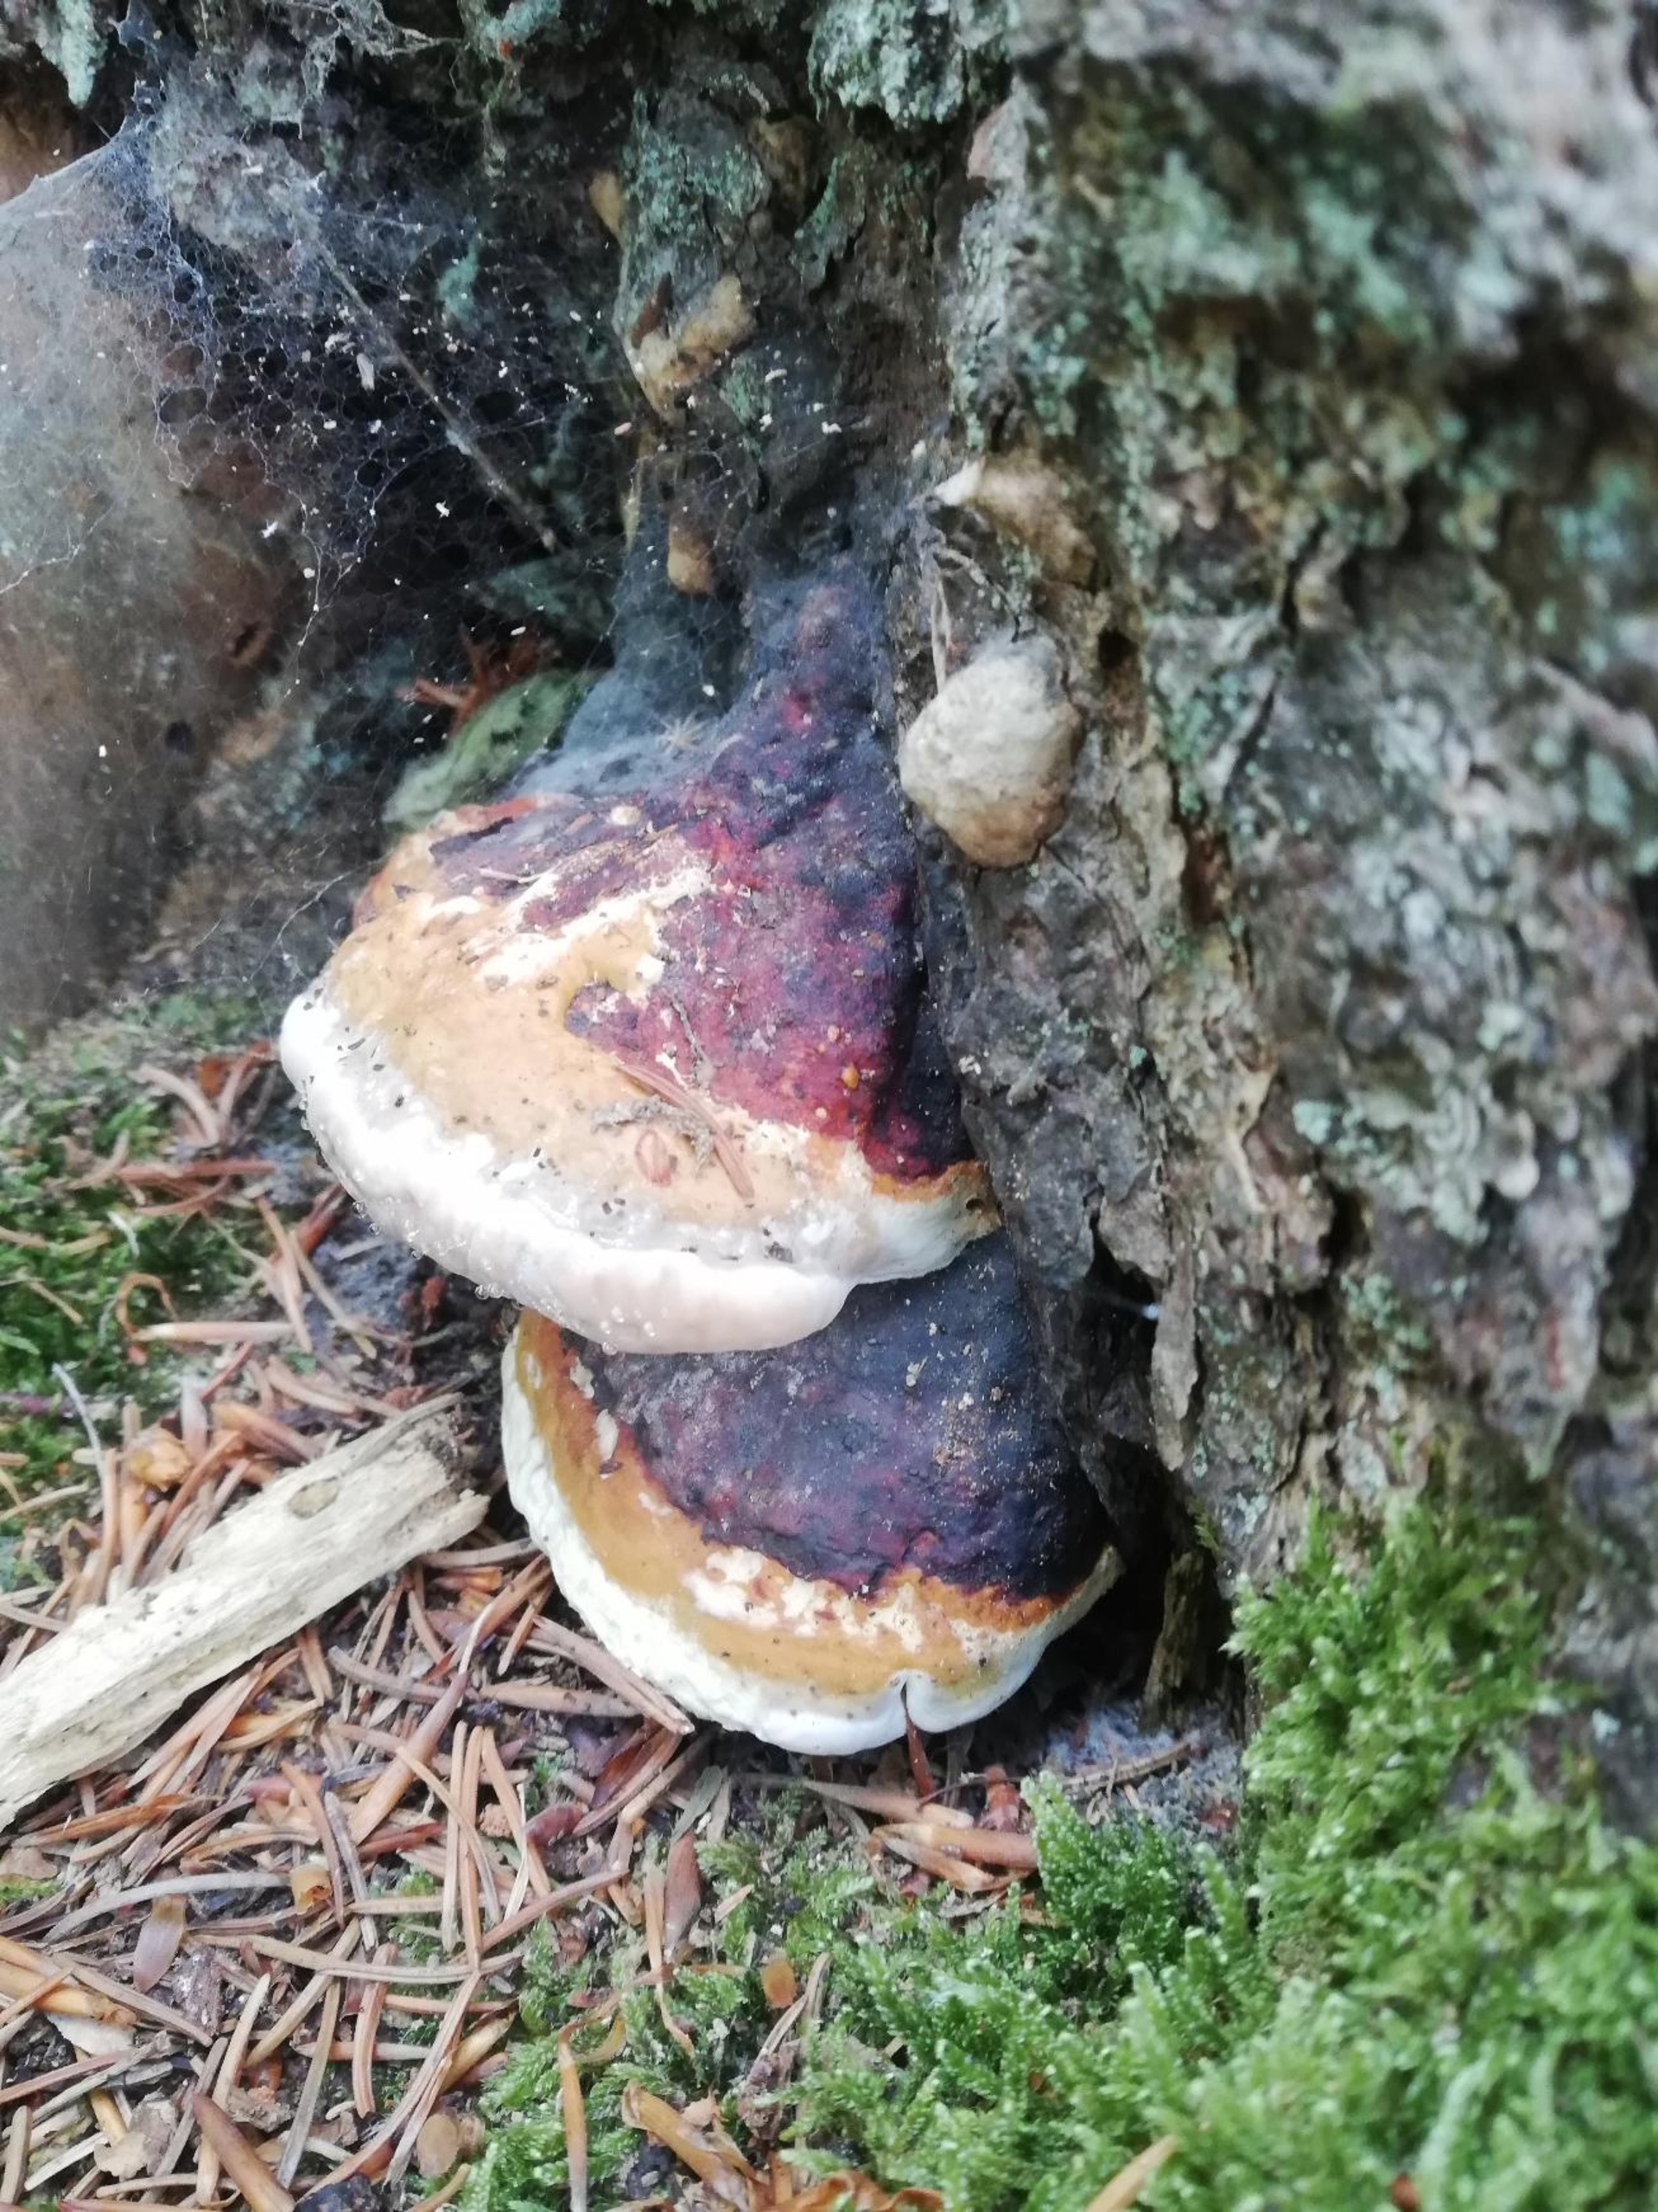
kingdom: Fungi
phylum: Basidiomycota
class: Agaricomycetes
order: Polyporales
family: Fomitopsidaceae
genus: Fomitopsis
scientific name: Fomitopsis pinicola
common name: Randbæltet hovporesvamp
